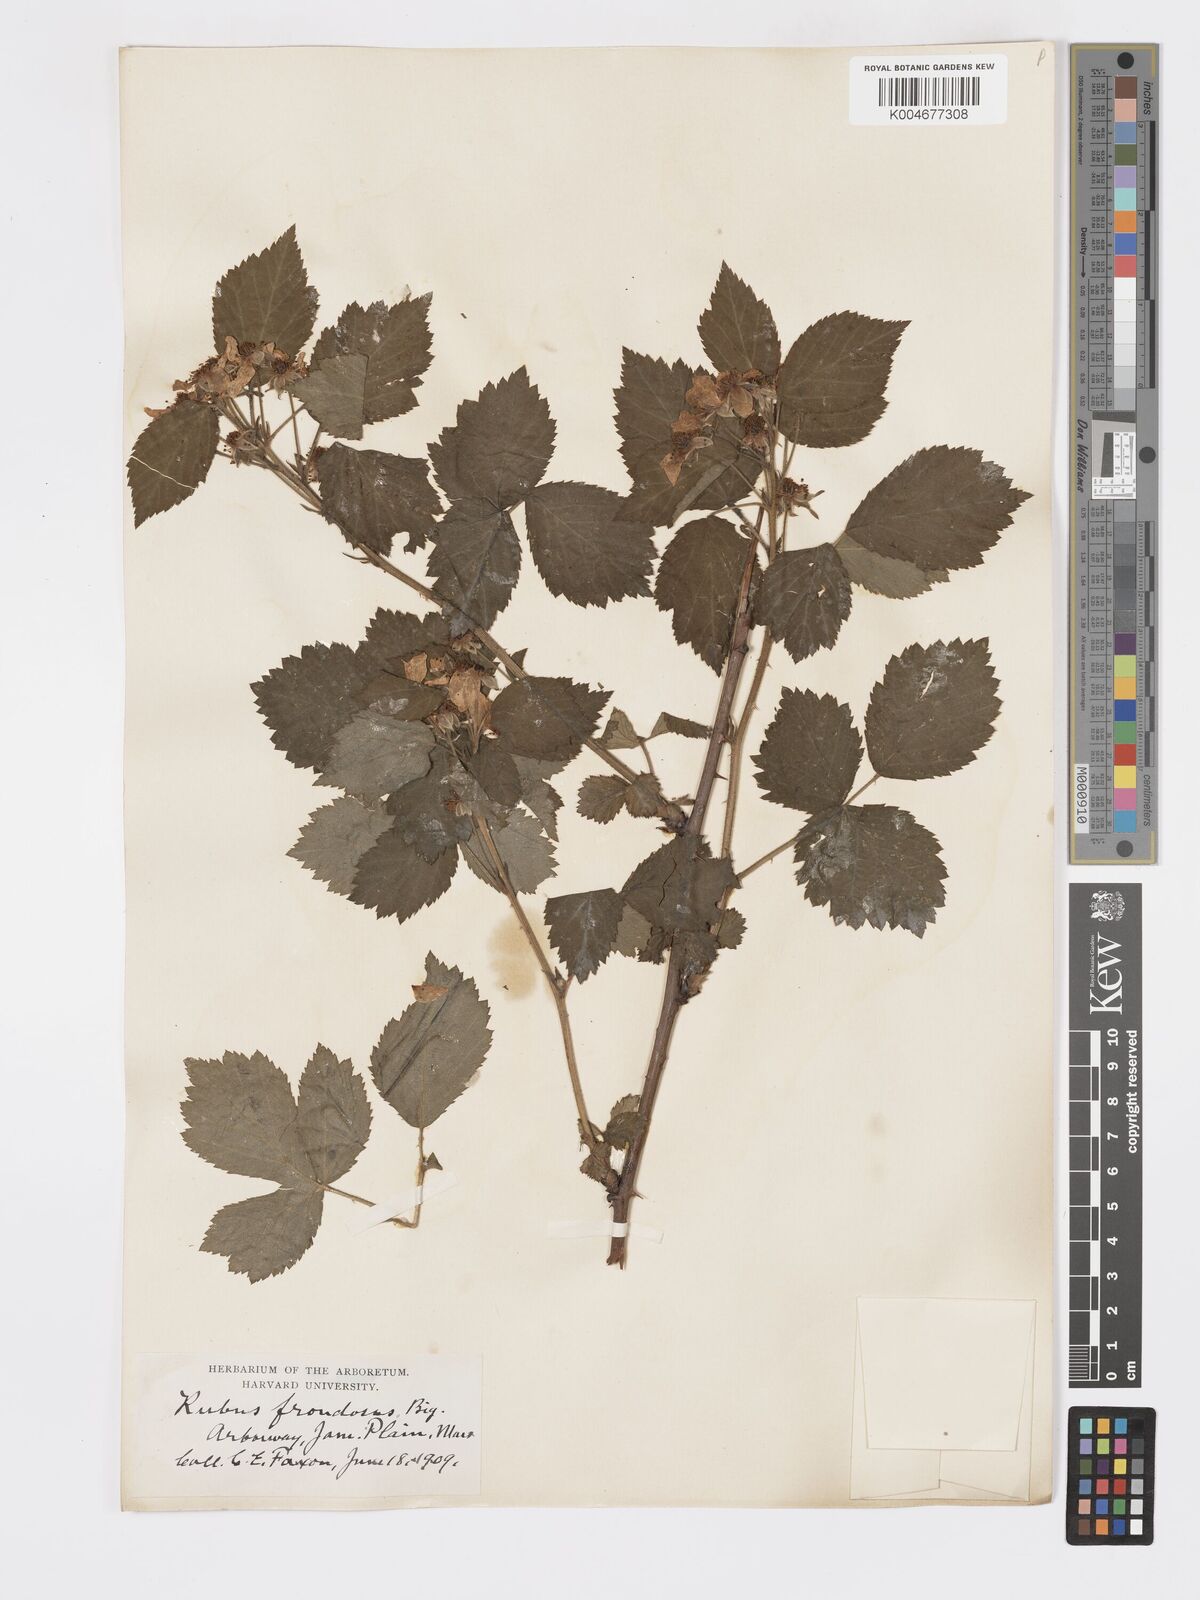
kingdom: Plantae
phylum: Tracheophyta
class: Magnoliopsida
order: Rosales
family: Rosaceae
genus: Rubus
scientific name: Rubus frondosus
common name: Yankee blackberry
